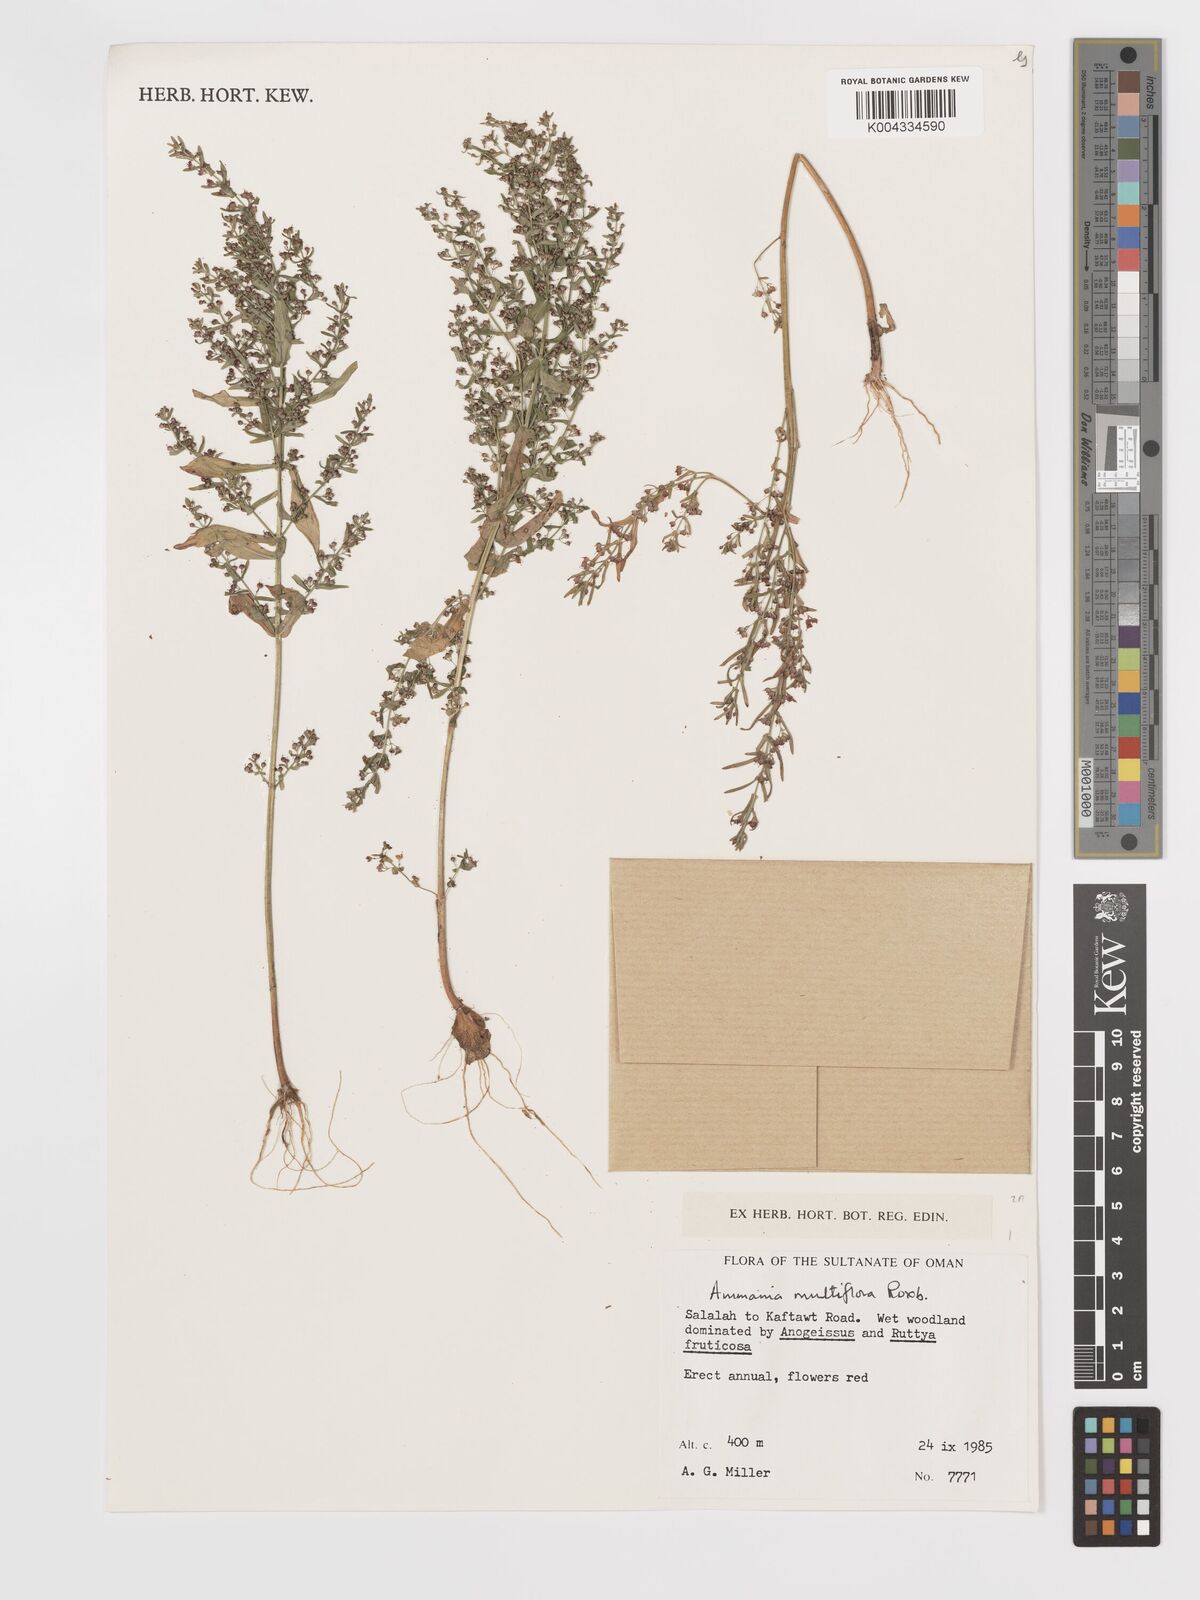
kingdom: Plantae
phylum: Tracheophyta
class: Magnoliopsida
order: Myrtales
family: Lythraceae
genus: Ammannia
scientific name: Ammannia auriculata
